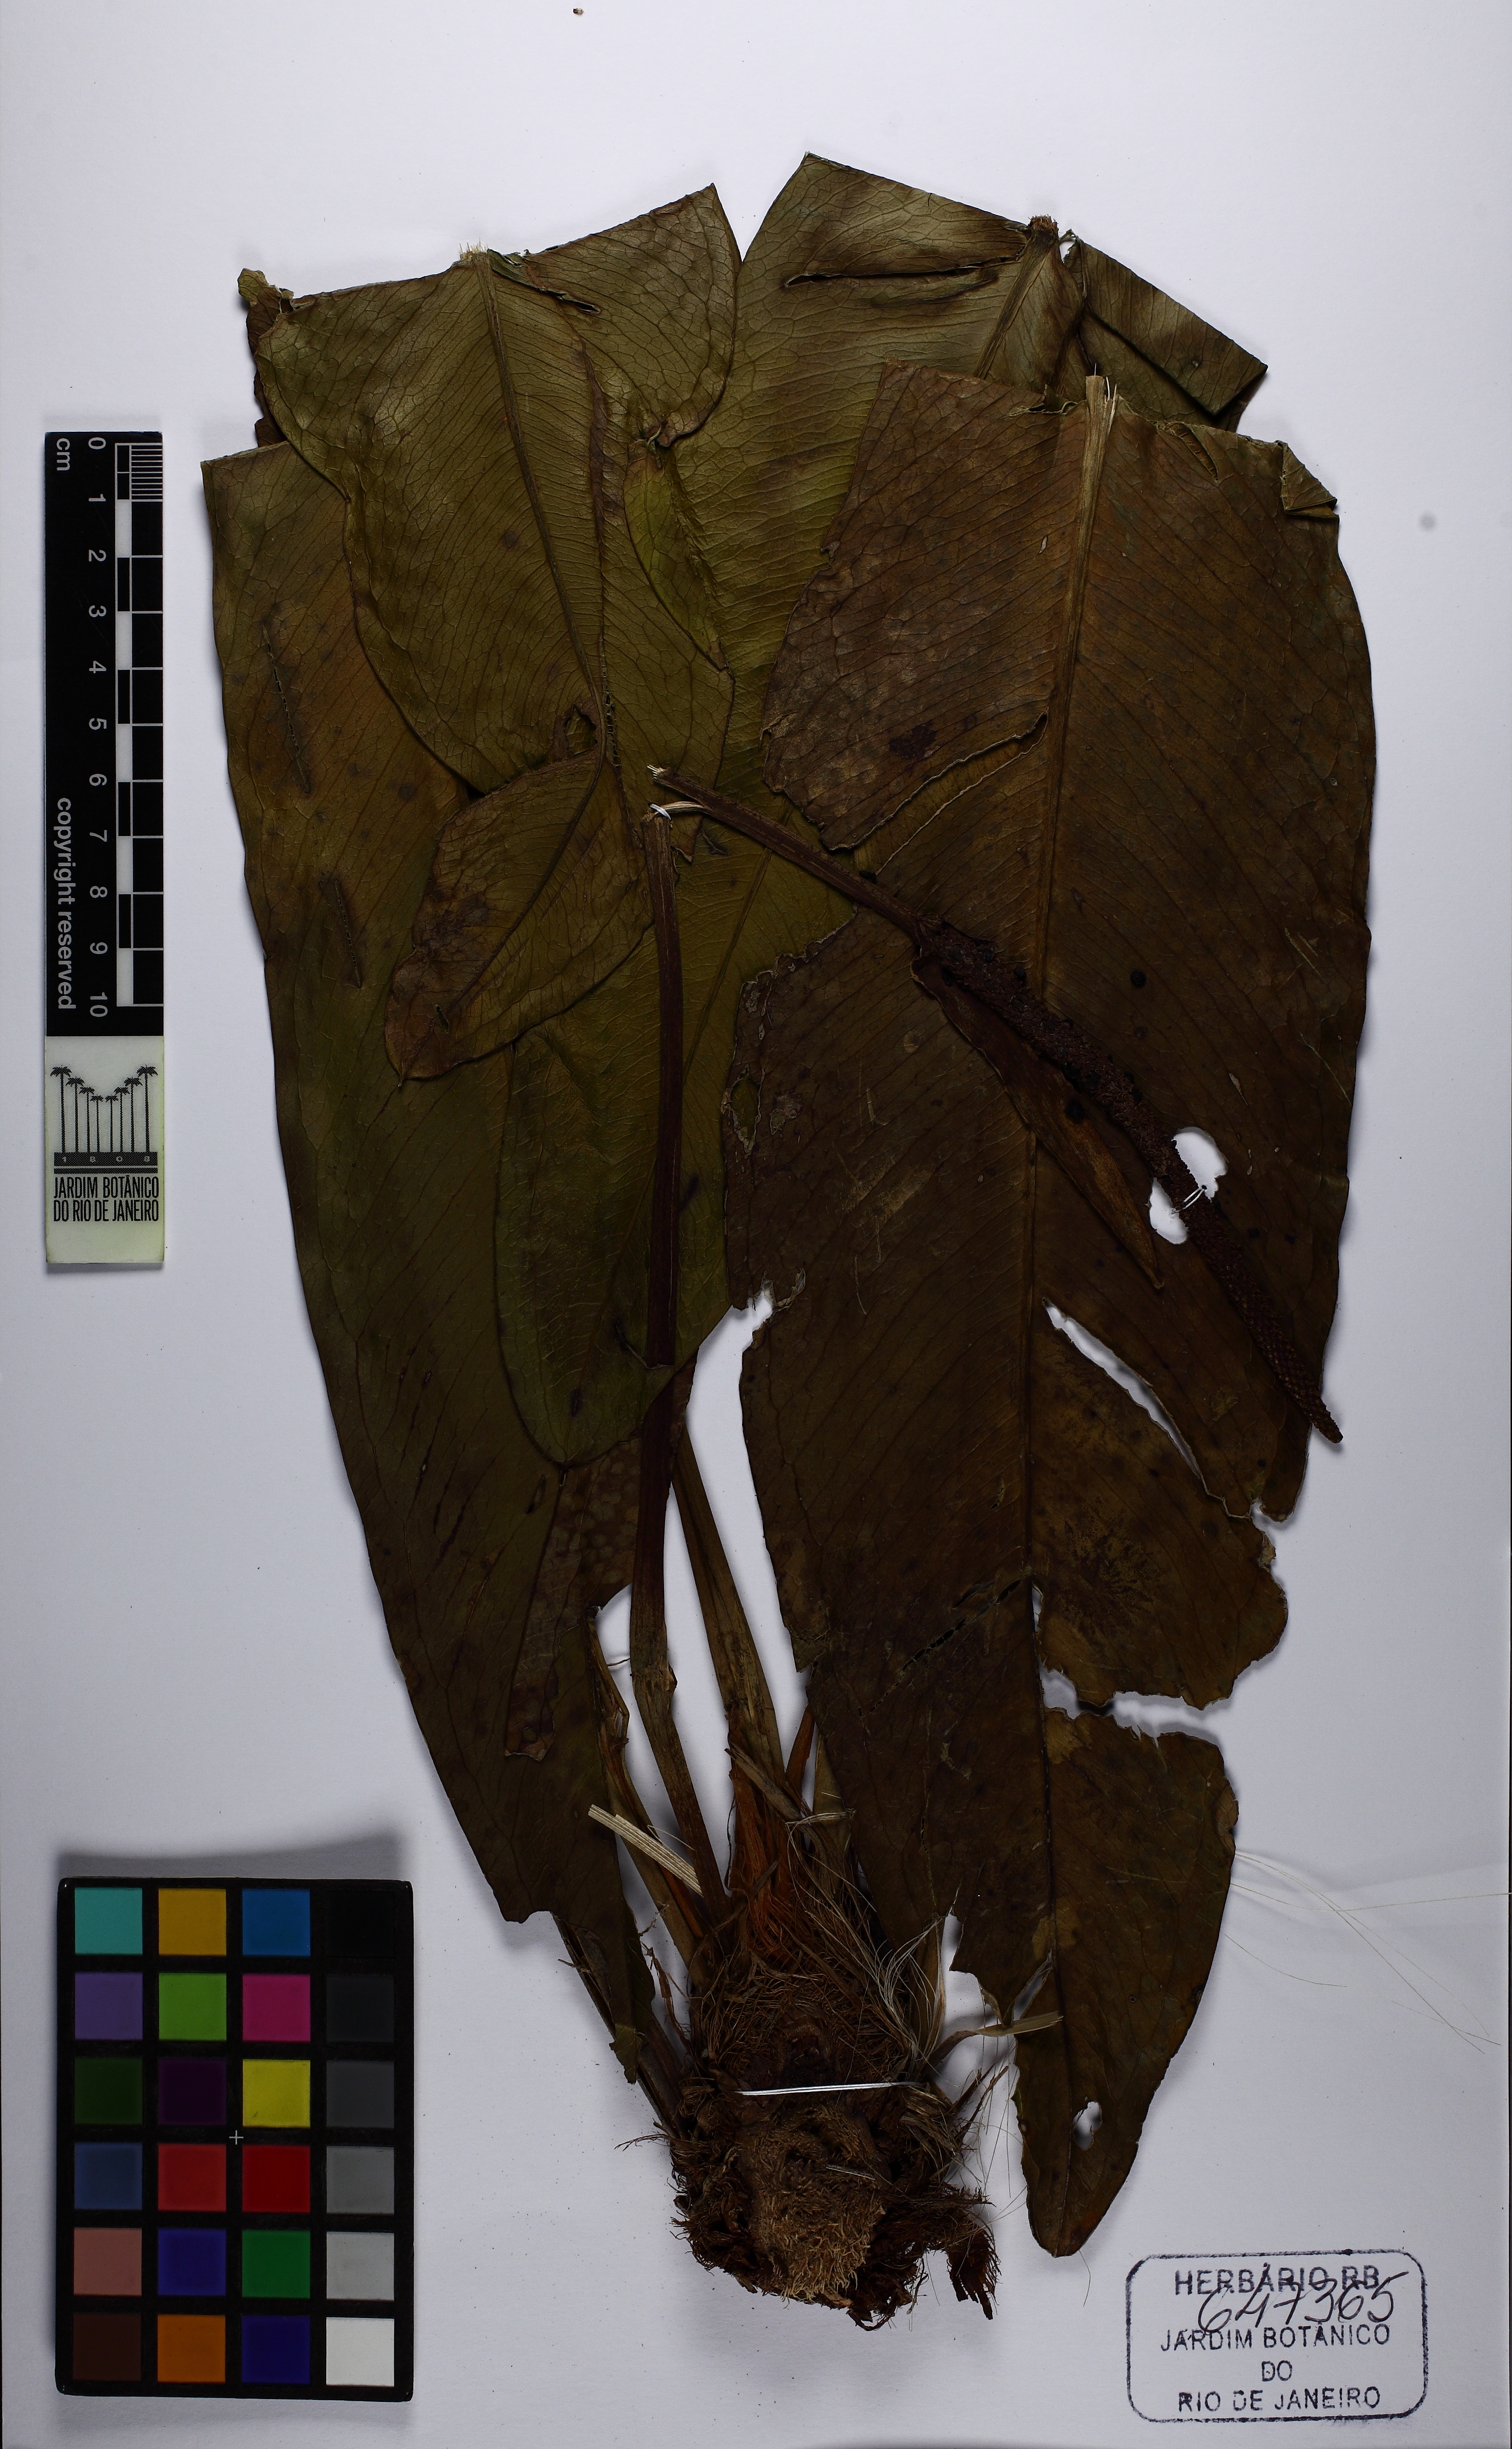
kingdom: Plantae
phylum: Tracheophyta
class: Liliopsida
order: Alismatales
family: Araceae
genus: Anthurium
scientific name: Anthurium
